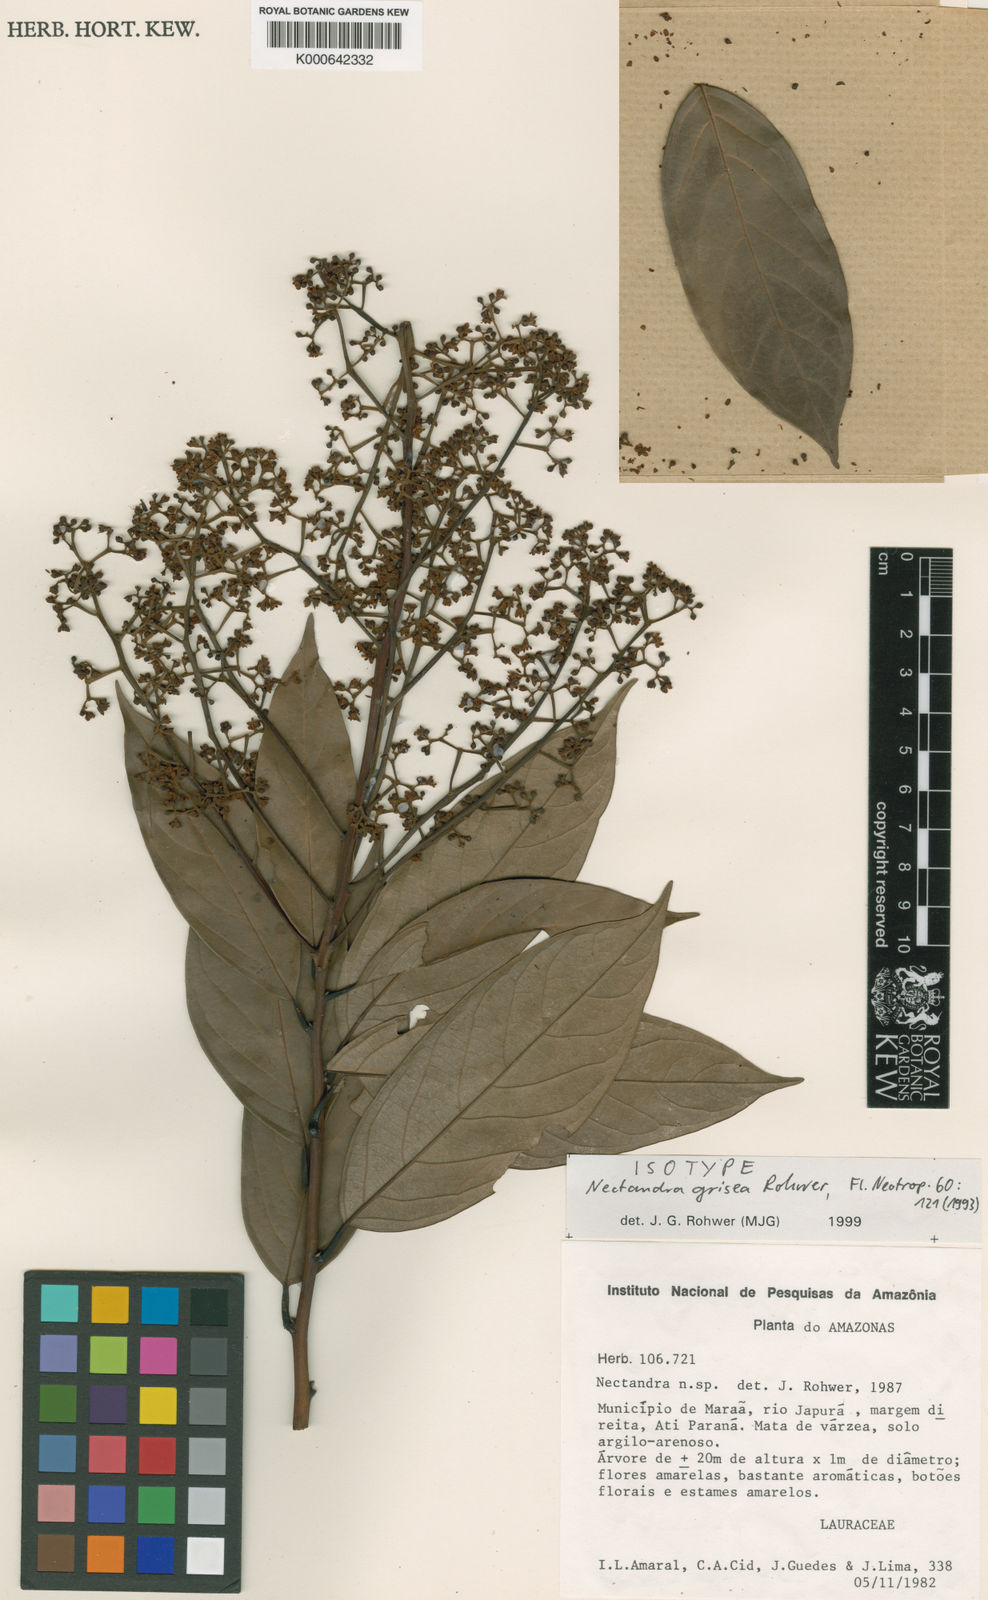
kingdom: Plantae
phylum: Tracheophyta
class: Magnoliopsida
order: Laurales
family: Lauraceae
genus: Nectandra
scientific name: Nectandra grisea
